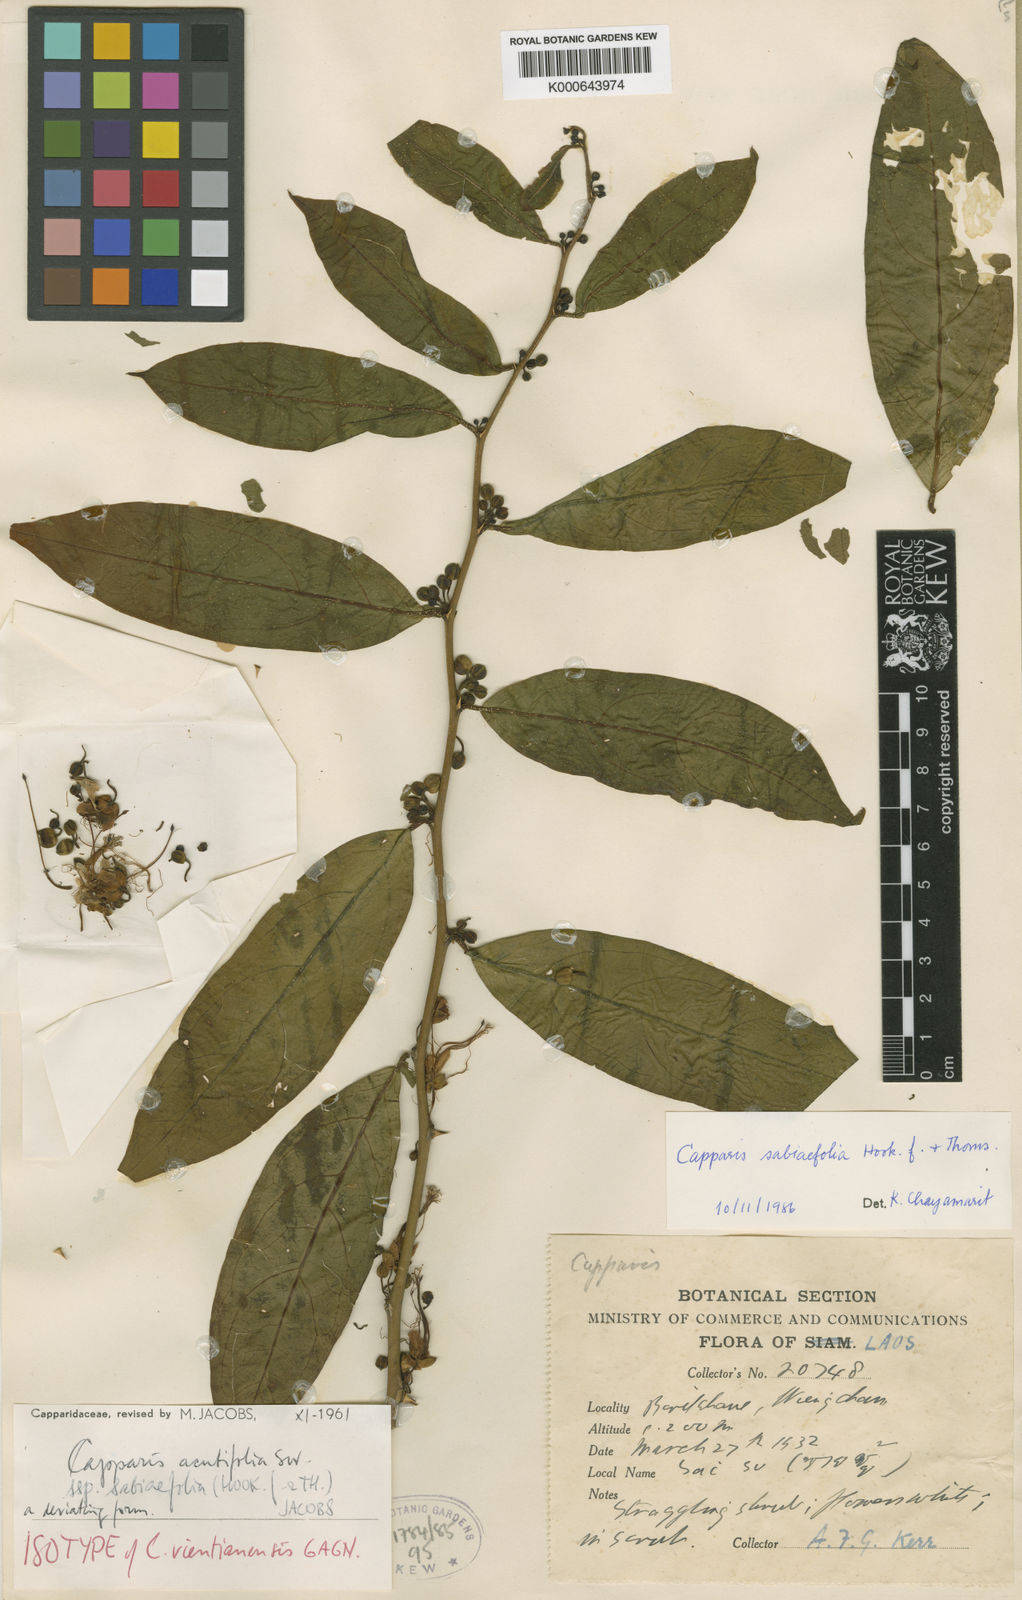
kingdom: Plantae
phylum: Tracheophyta
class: Magnoliopsida
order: Brassicales
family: Capparaceae
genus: Capparis
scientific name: Capparis acutifolia
